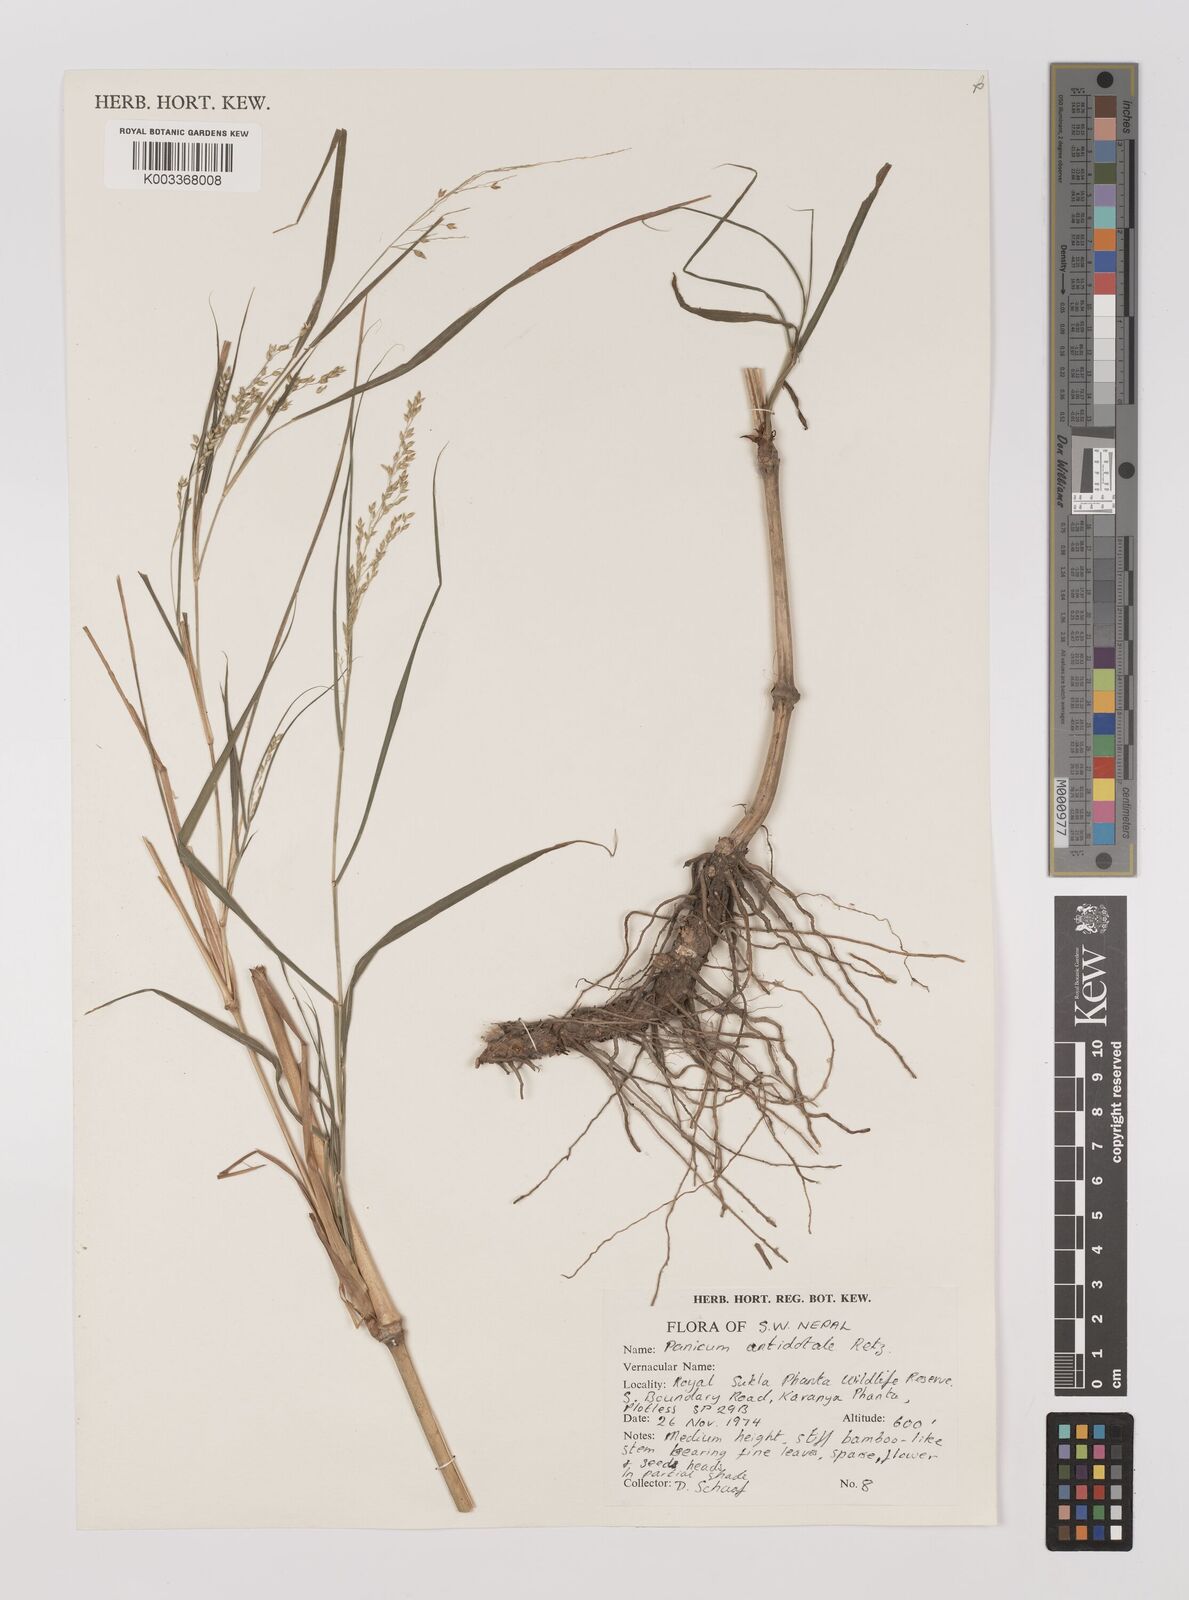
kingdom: Plantae
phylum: Tracheophyta
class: Liliopsida
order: Poales
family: Poaceae
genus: Panicum
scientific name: Panicum antidotale
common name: Blue panicum
